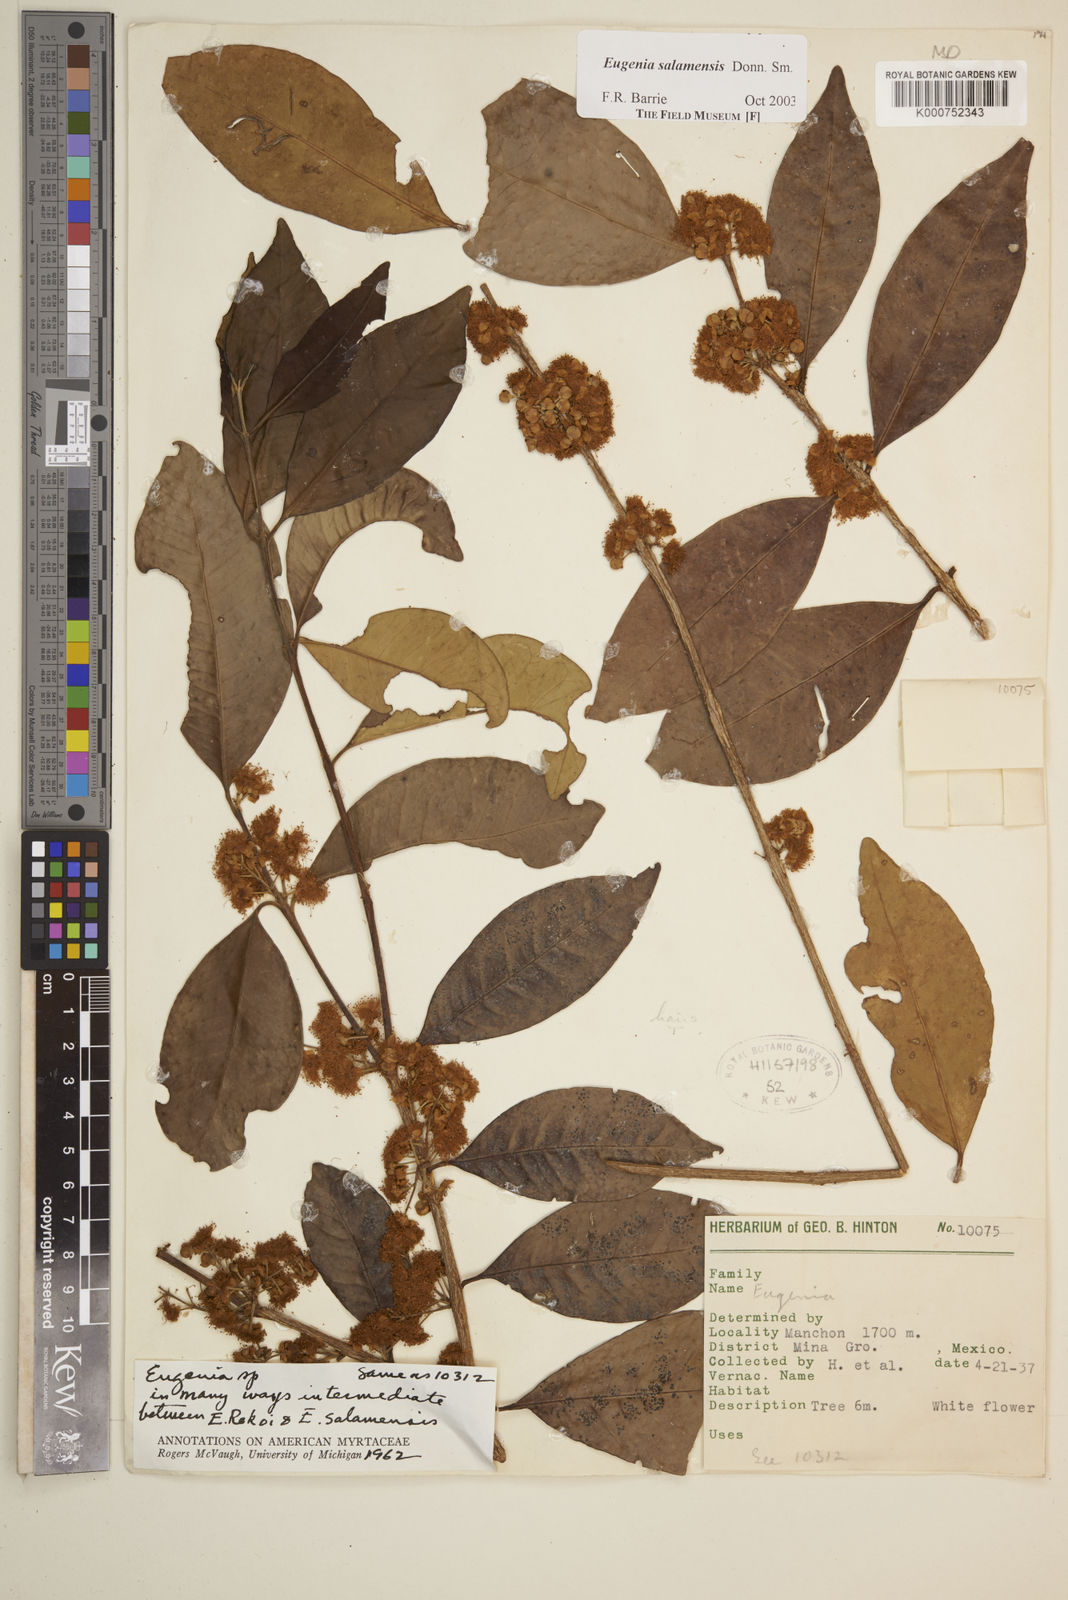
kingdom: Plantae
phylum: Tracheophyta
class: Magnoliopsida
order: Myrtales
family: Myrtaceae
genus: Eugenia
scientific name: Eugenia salamensis
